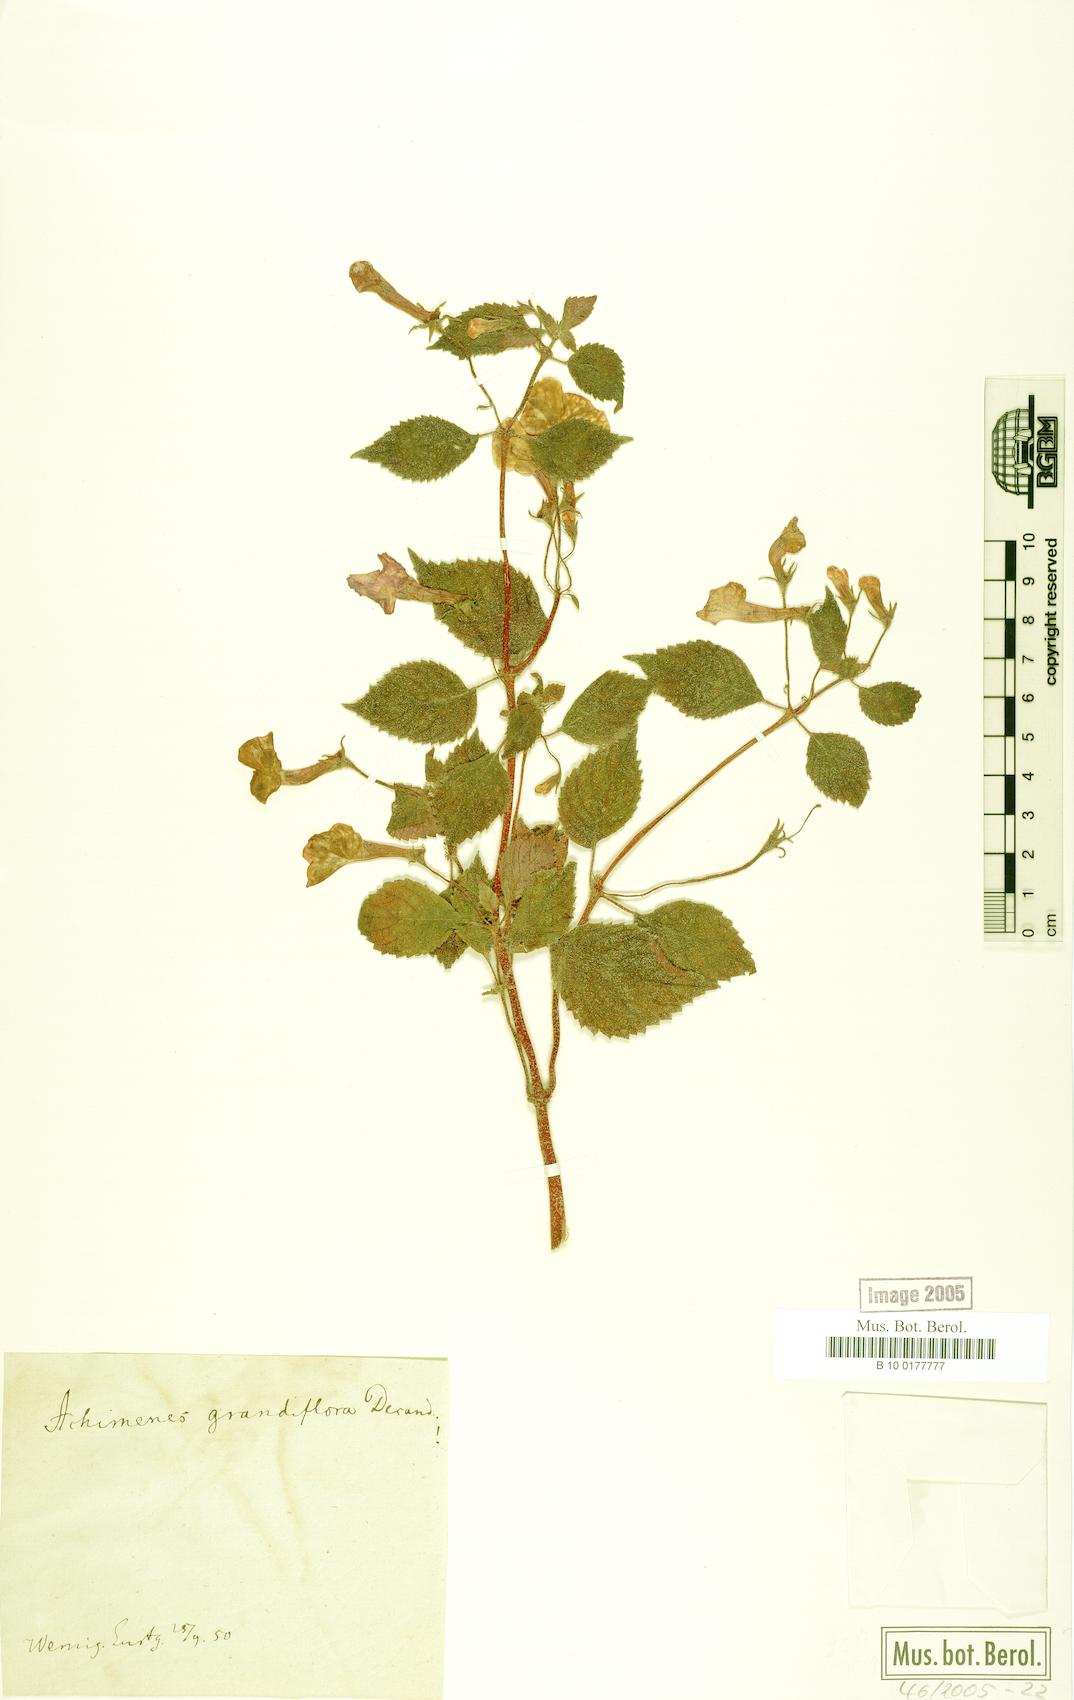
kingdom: Plantae
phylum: Tracheophyta
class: Magnoliopsida
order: Lamiales
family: Gesneriaceae
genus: Achimenes
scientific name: Achimenes grandiflora
